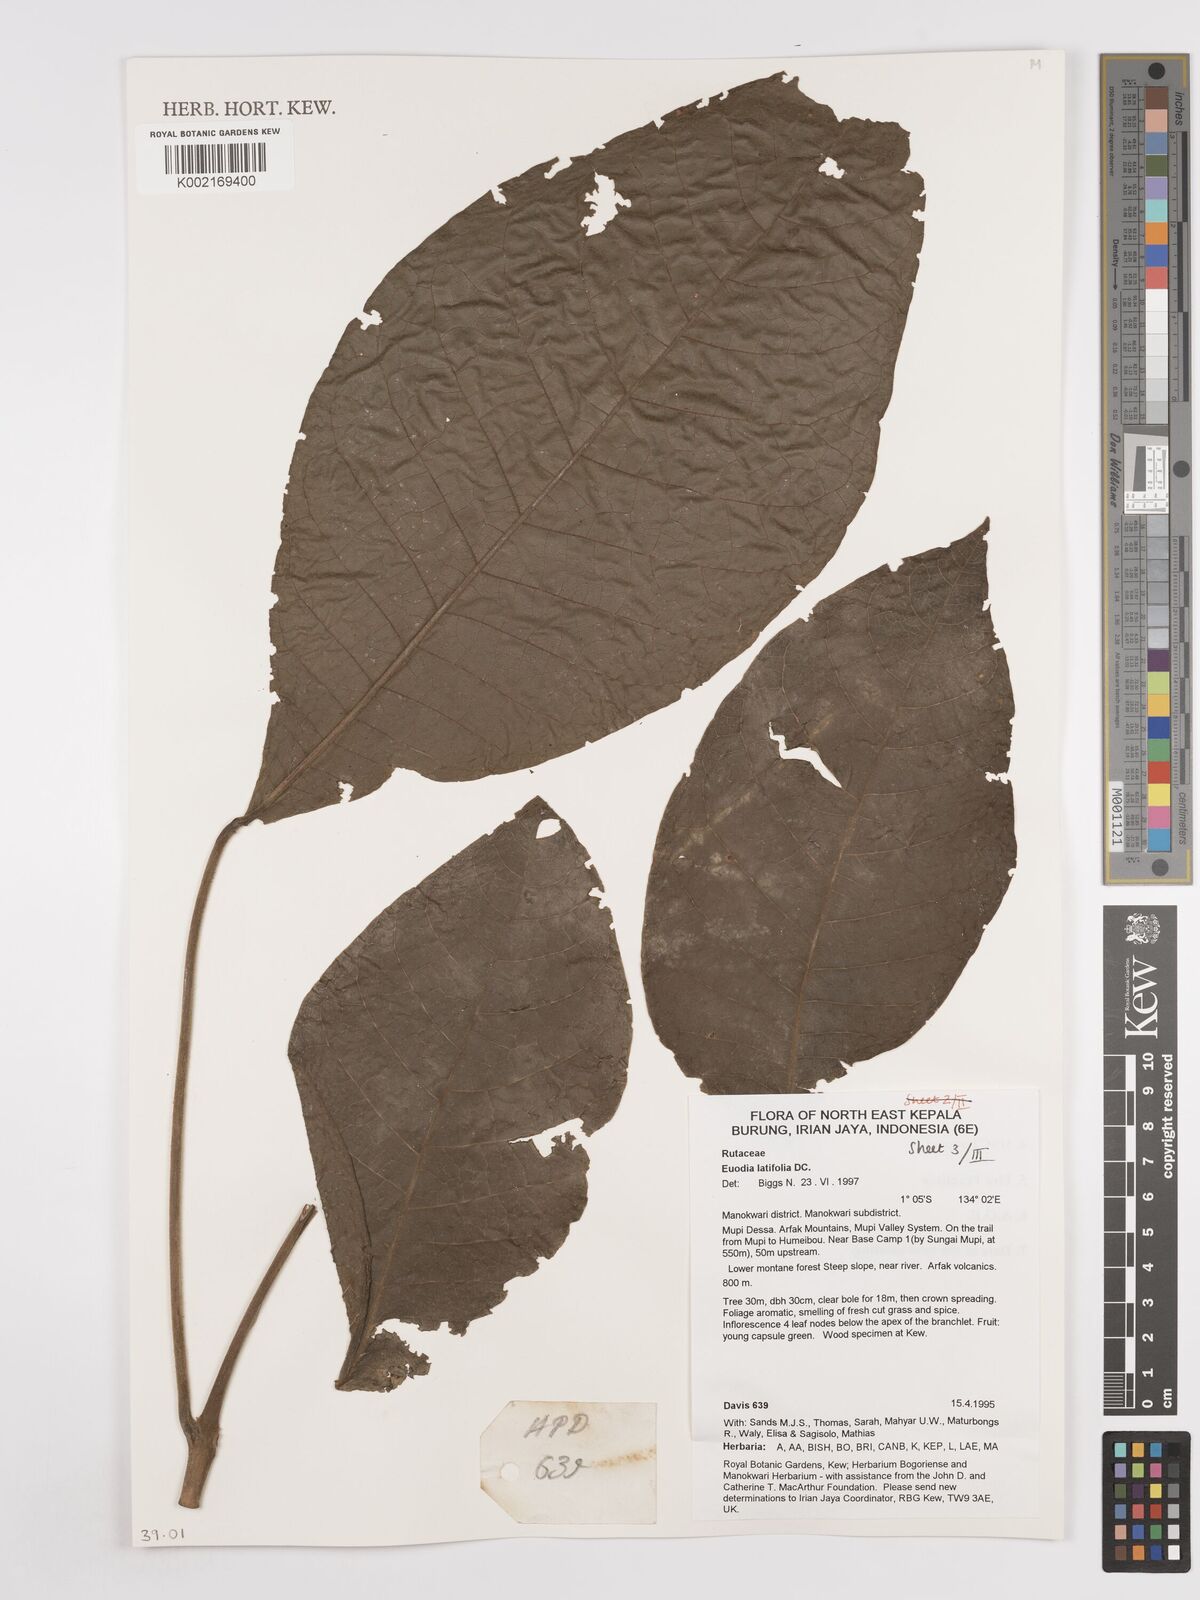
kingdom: Plantae
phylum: Tracheophyta
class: Magnoliopsida
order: Sapindales
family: Rutaceae
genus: Melicope
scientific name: Melicope latifolia
